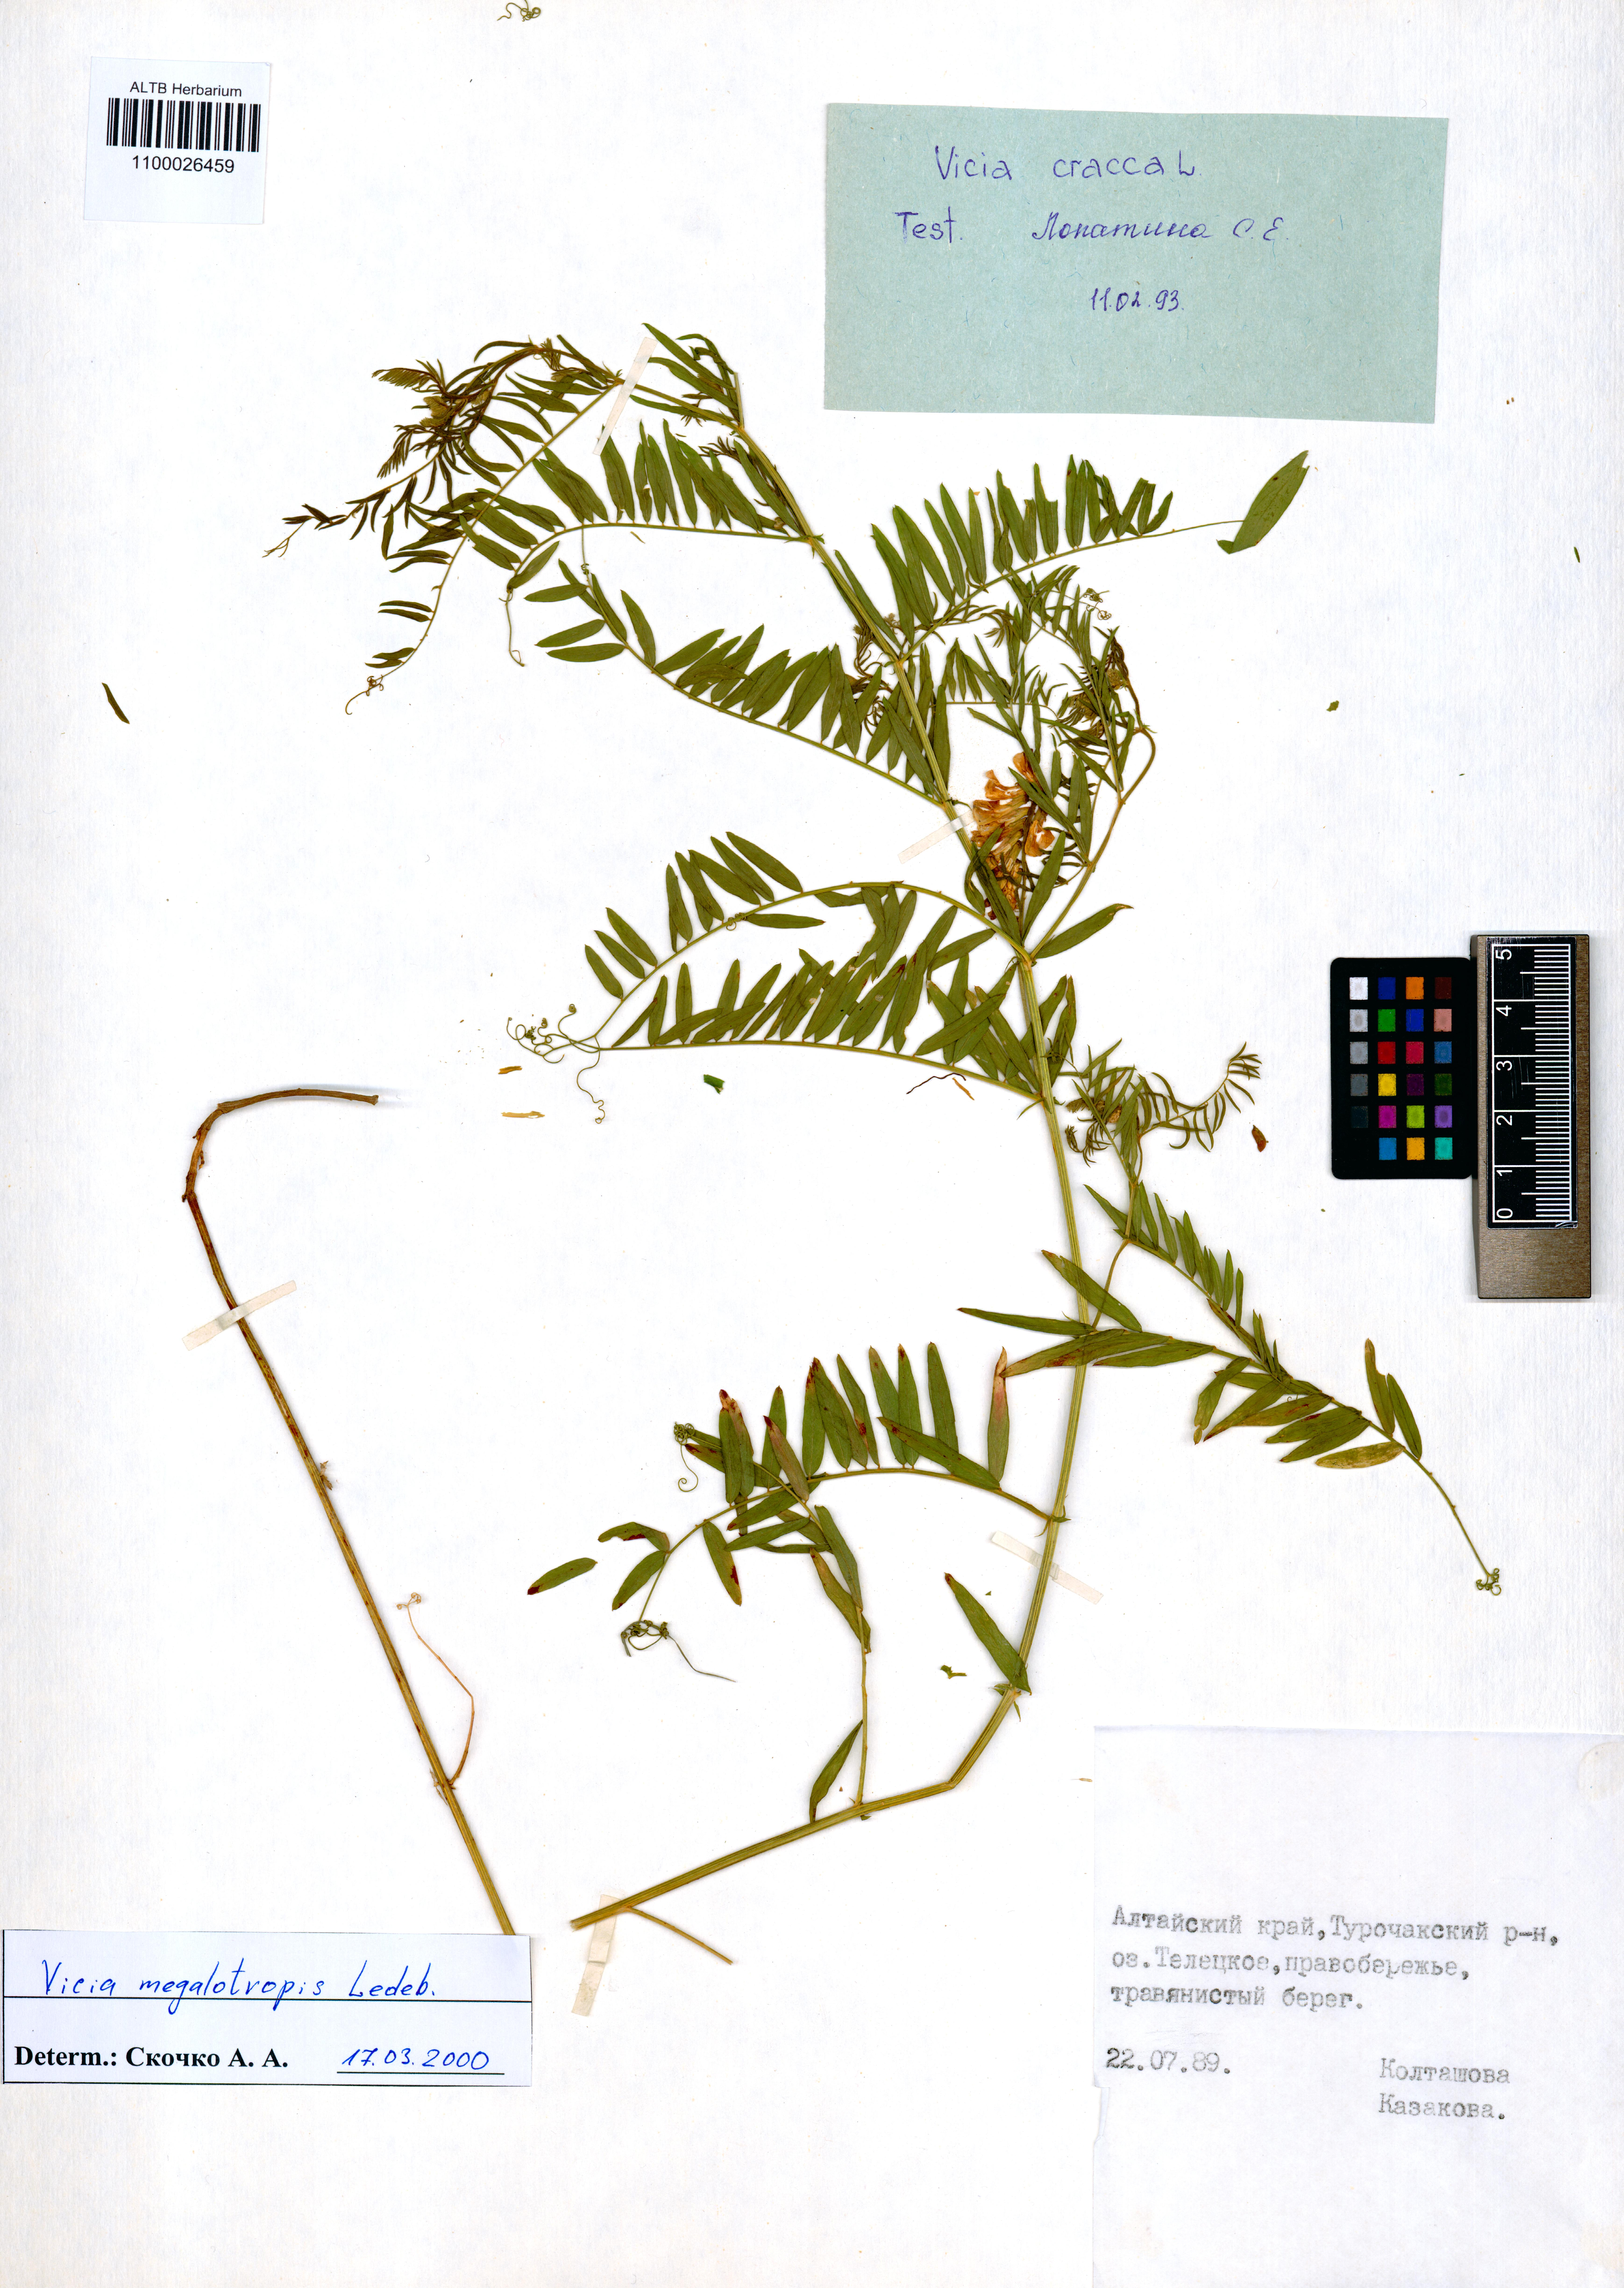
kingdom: Plantae
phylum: Tracheophyta
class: Magnoliopsida
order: Fabales
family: Fabaceae
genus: Vicia
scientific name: Vicia megalotropis
